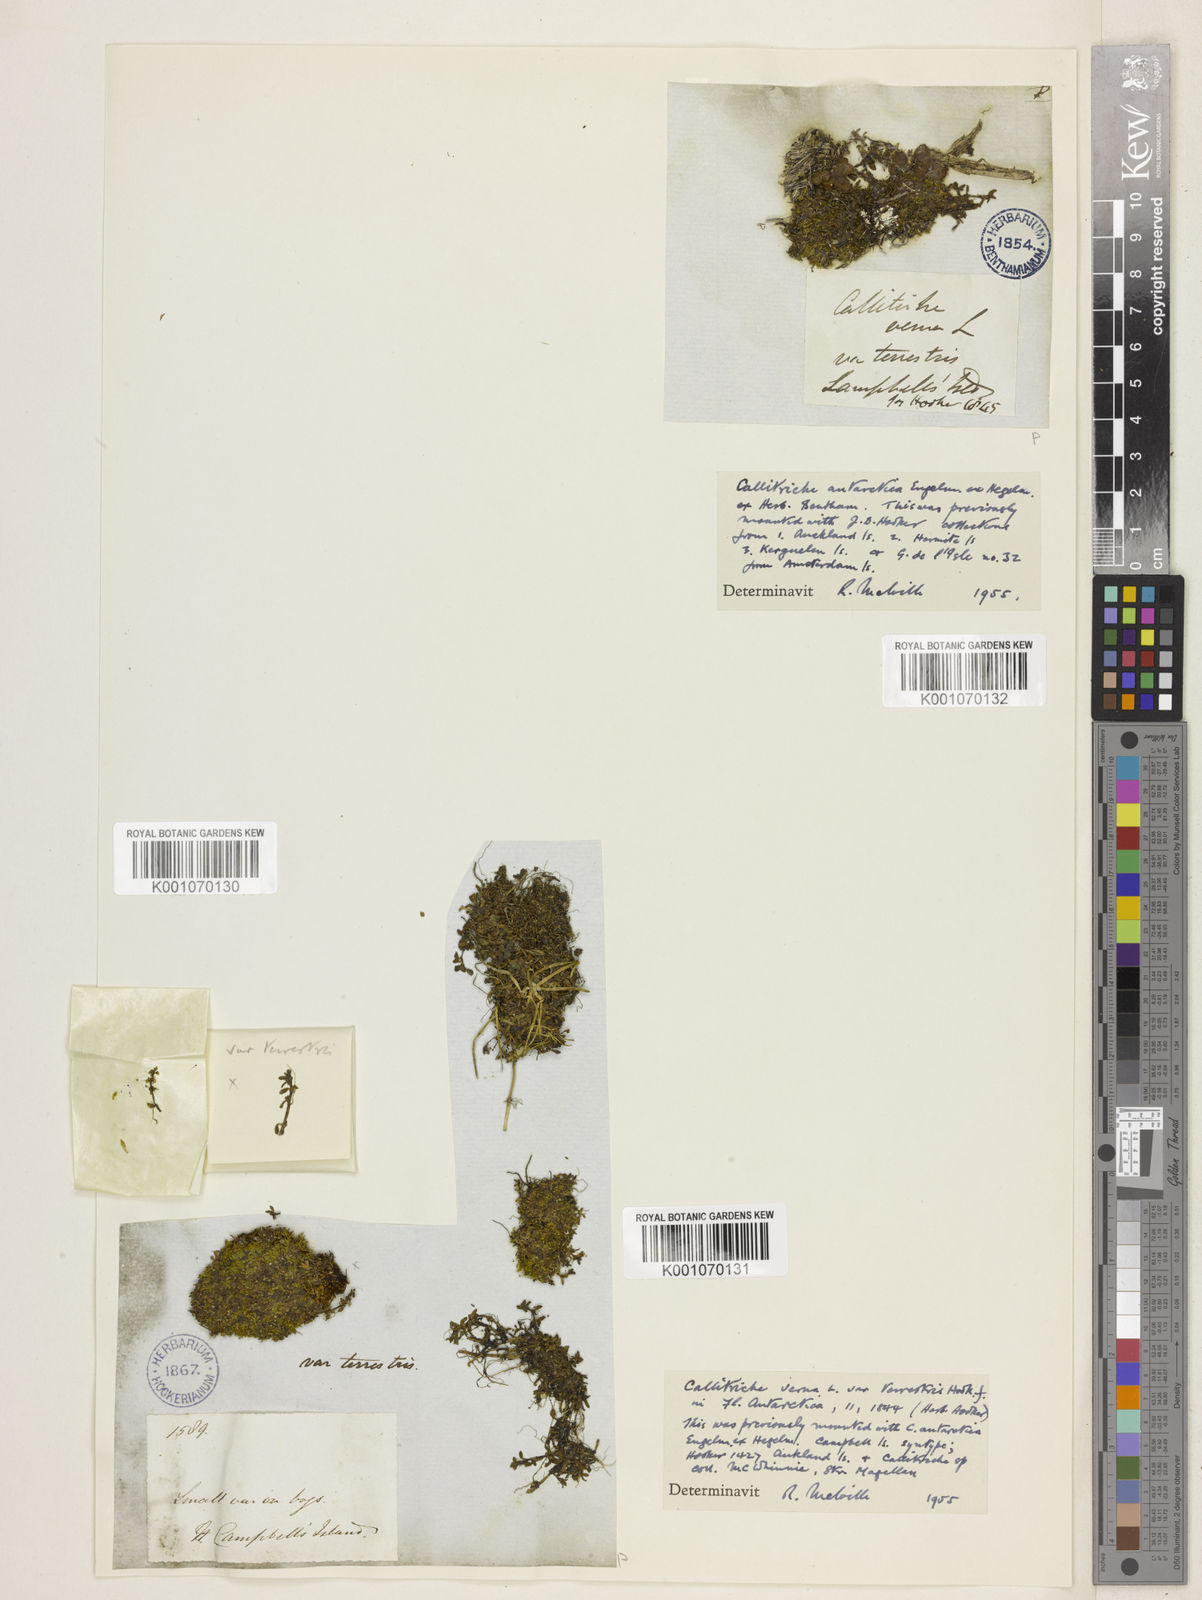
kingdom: Plantae
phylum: Tracheophyta
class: Magnoliopsida
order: Lamiales
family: Plantaginaceae
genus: Callitriche
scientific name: Callitriche antarctica
